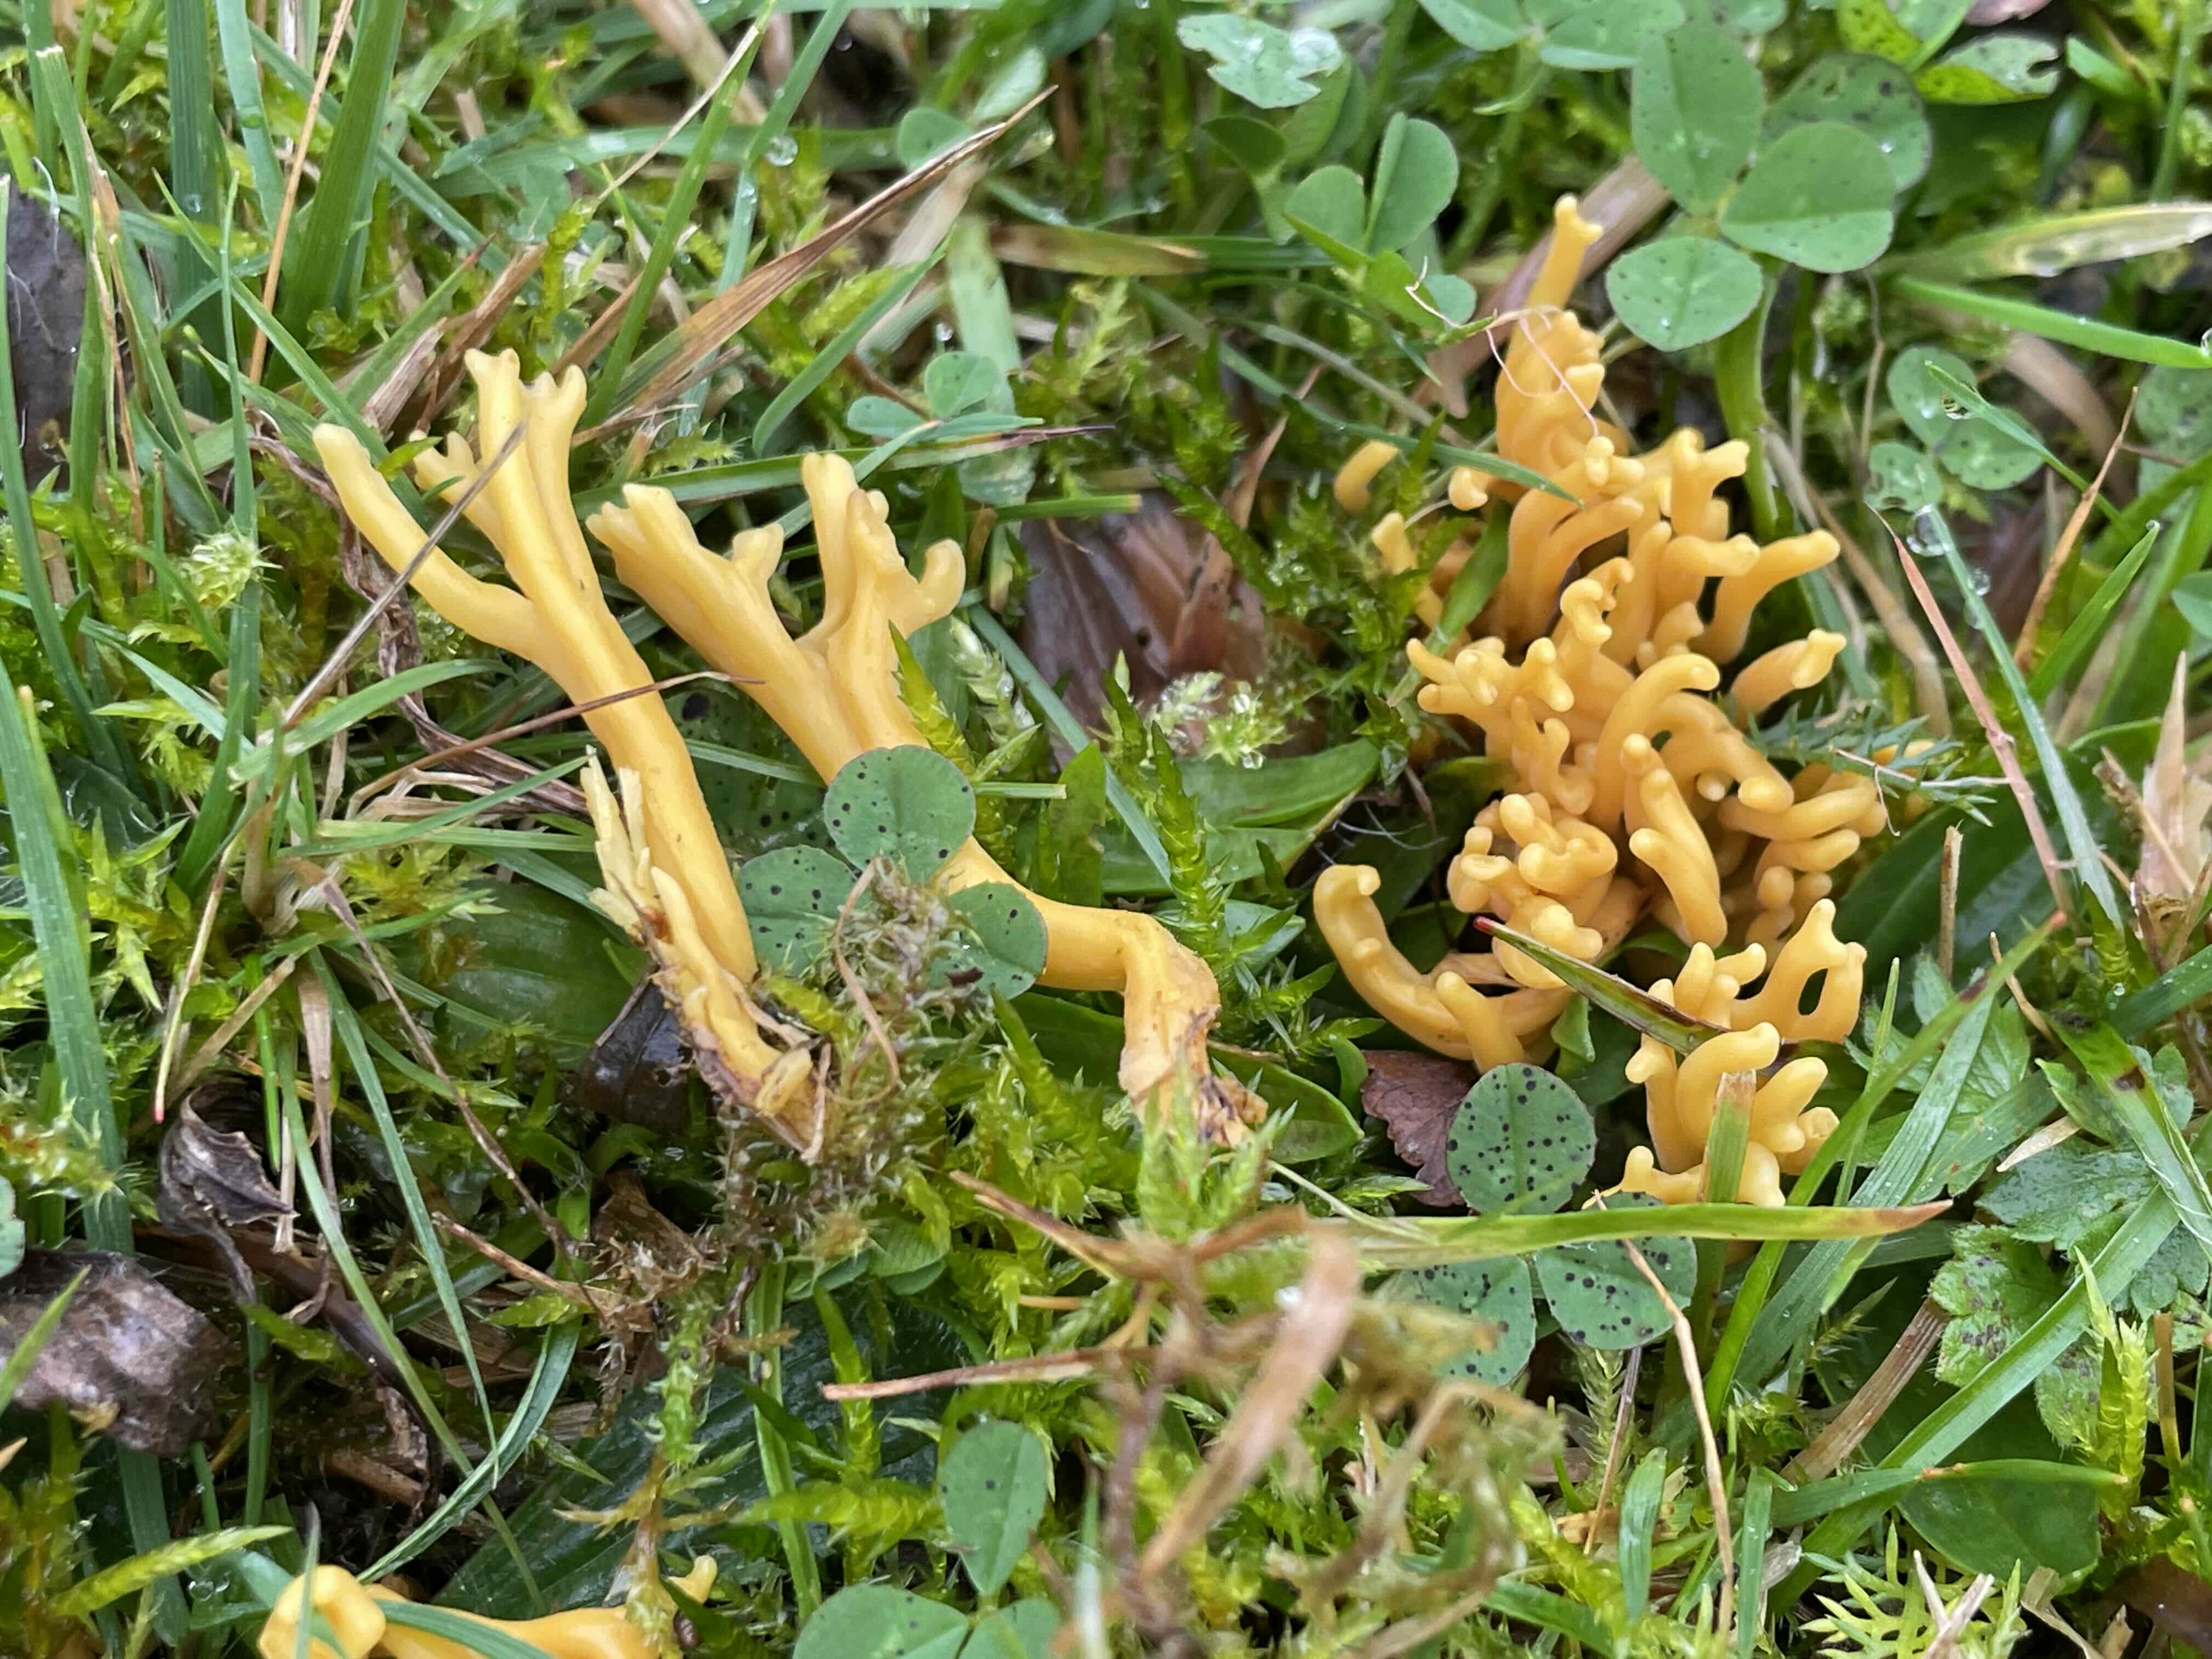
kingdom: Fungi
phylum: Basidiomycota
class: Agaricomycetes
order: Agaricales
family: Clavariaceae
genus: Clavulinopsis
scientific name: Clavulinopsis corniculata
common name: eng-køllesvamp
